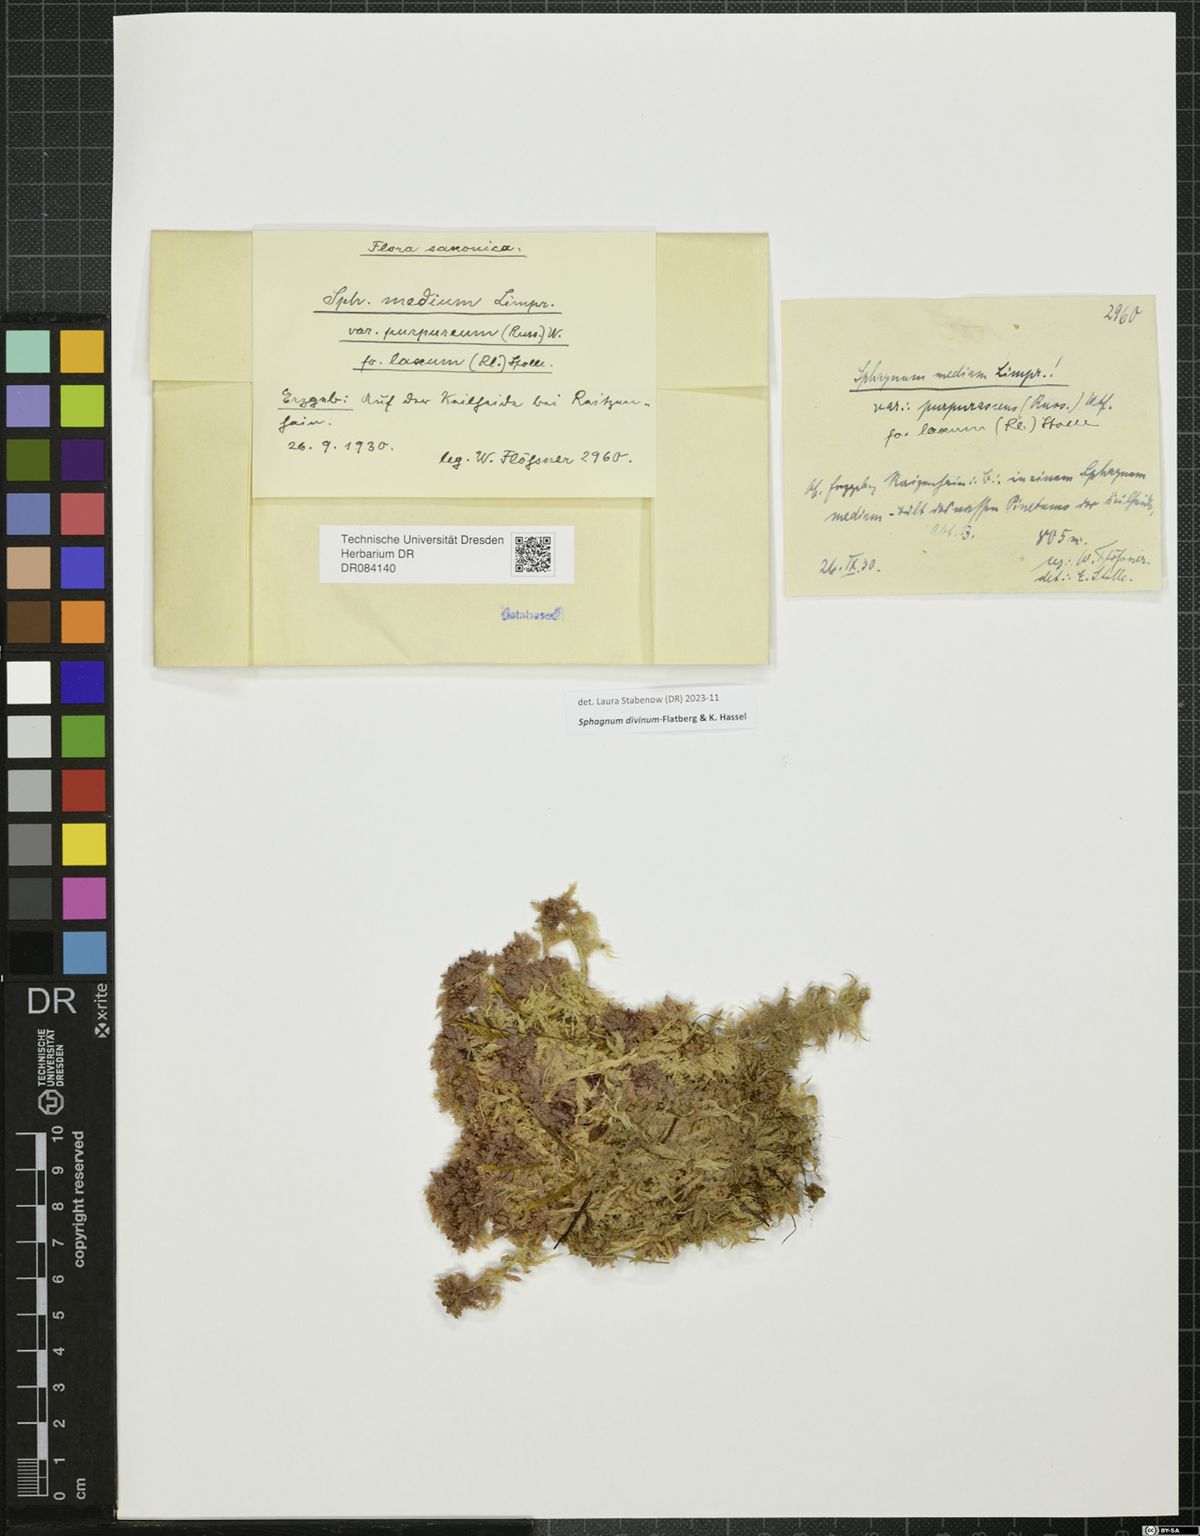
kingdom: Plantae
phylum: Bryophyta
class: Sphagnopsida
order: Sphagnales
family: Sphagnaceae
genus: Sphagnum
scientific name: Sphagnum divinum
